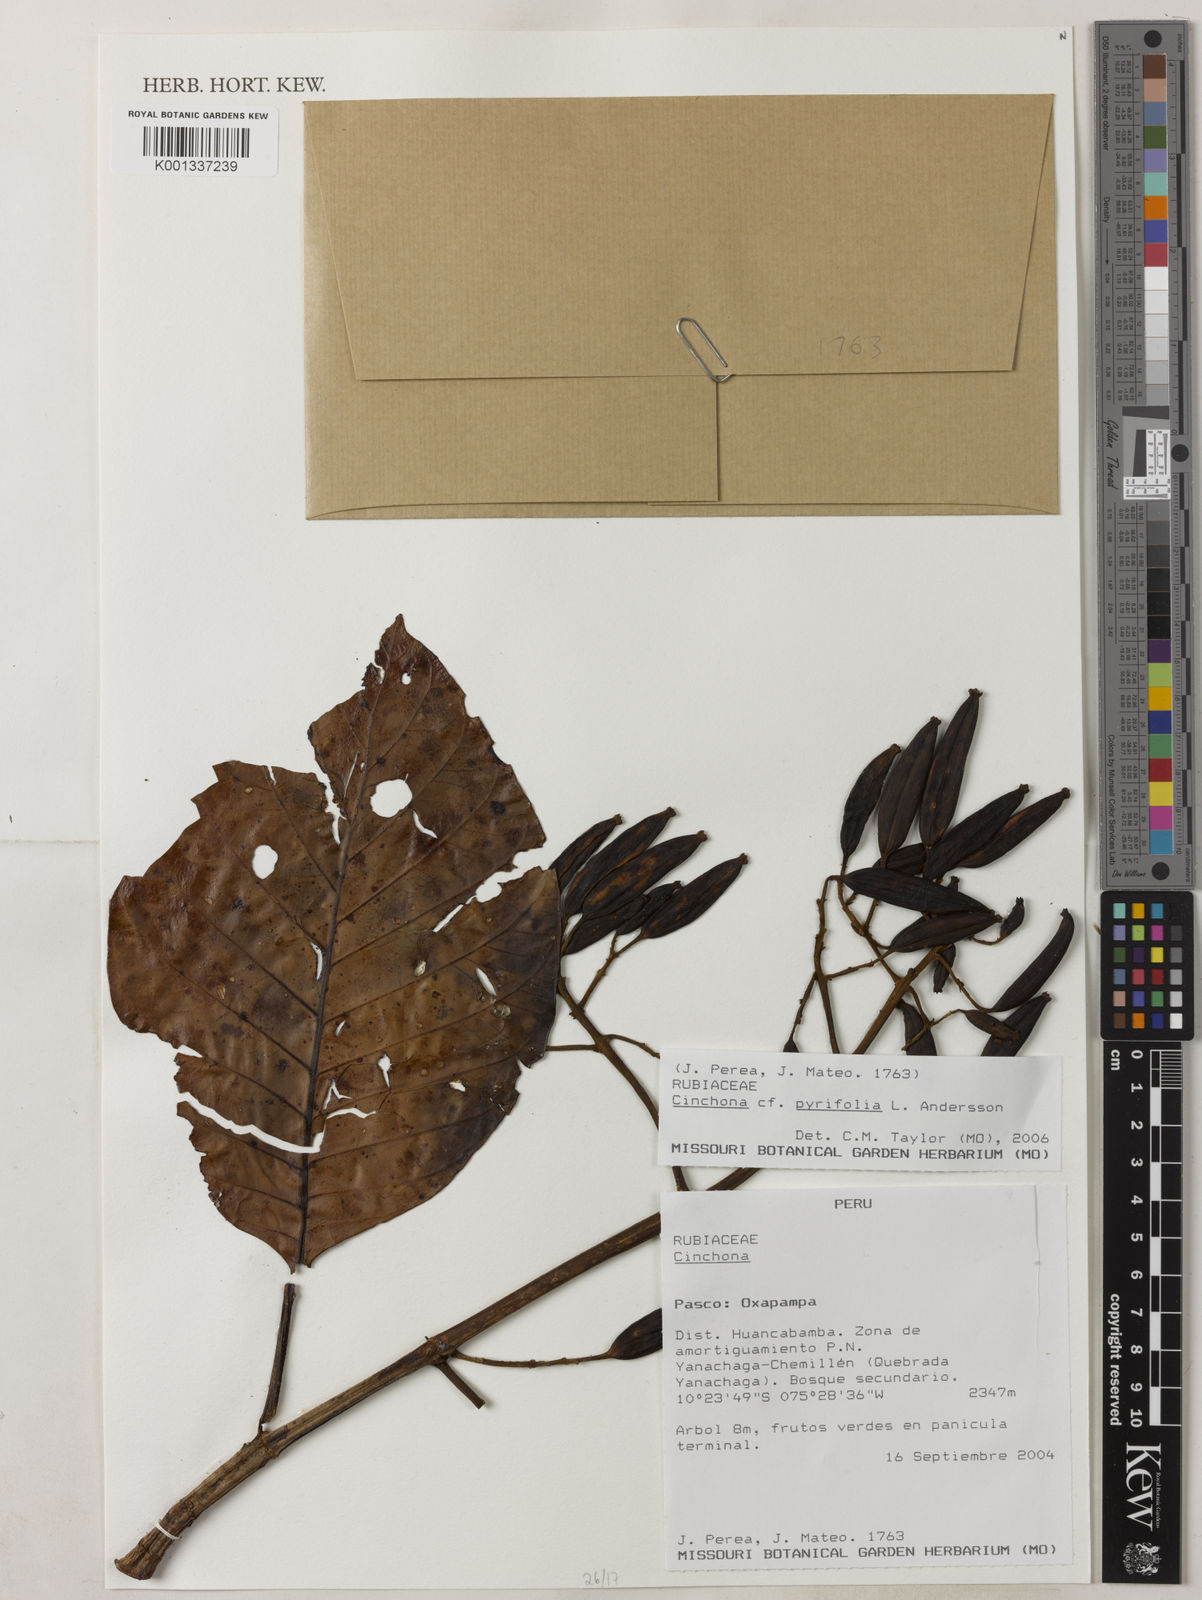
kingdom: Plantae
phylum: Tracheophyta
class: Magnoliopsida
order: Gentianales
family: Rubiaceae
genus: Cinchona
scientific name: Cinchona pyrifolia
